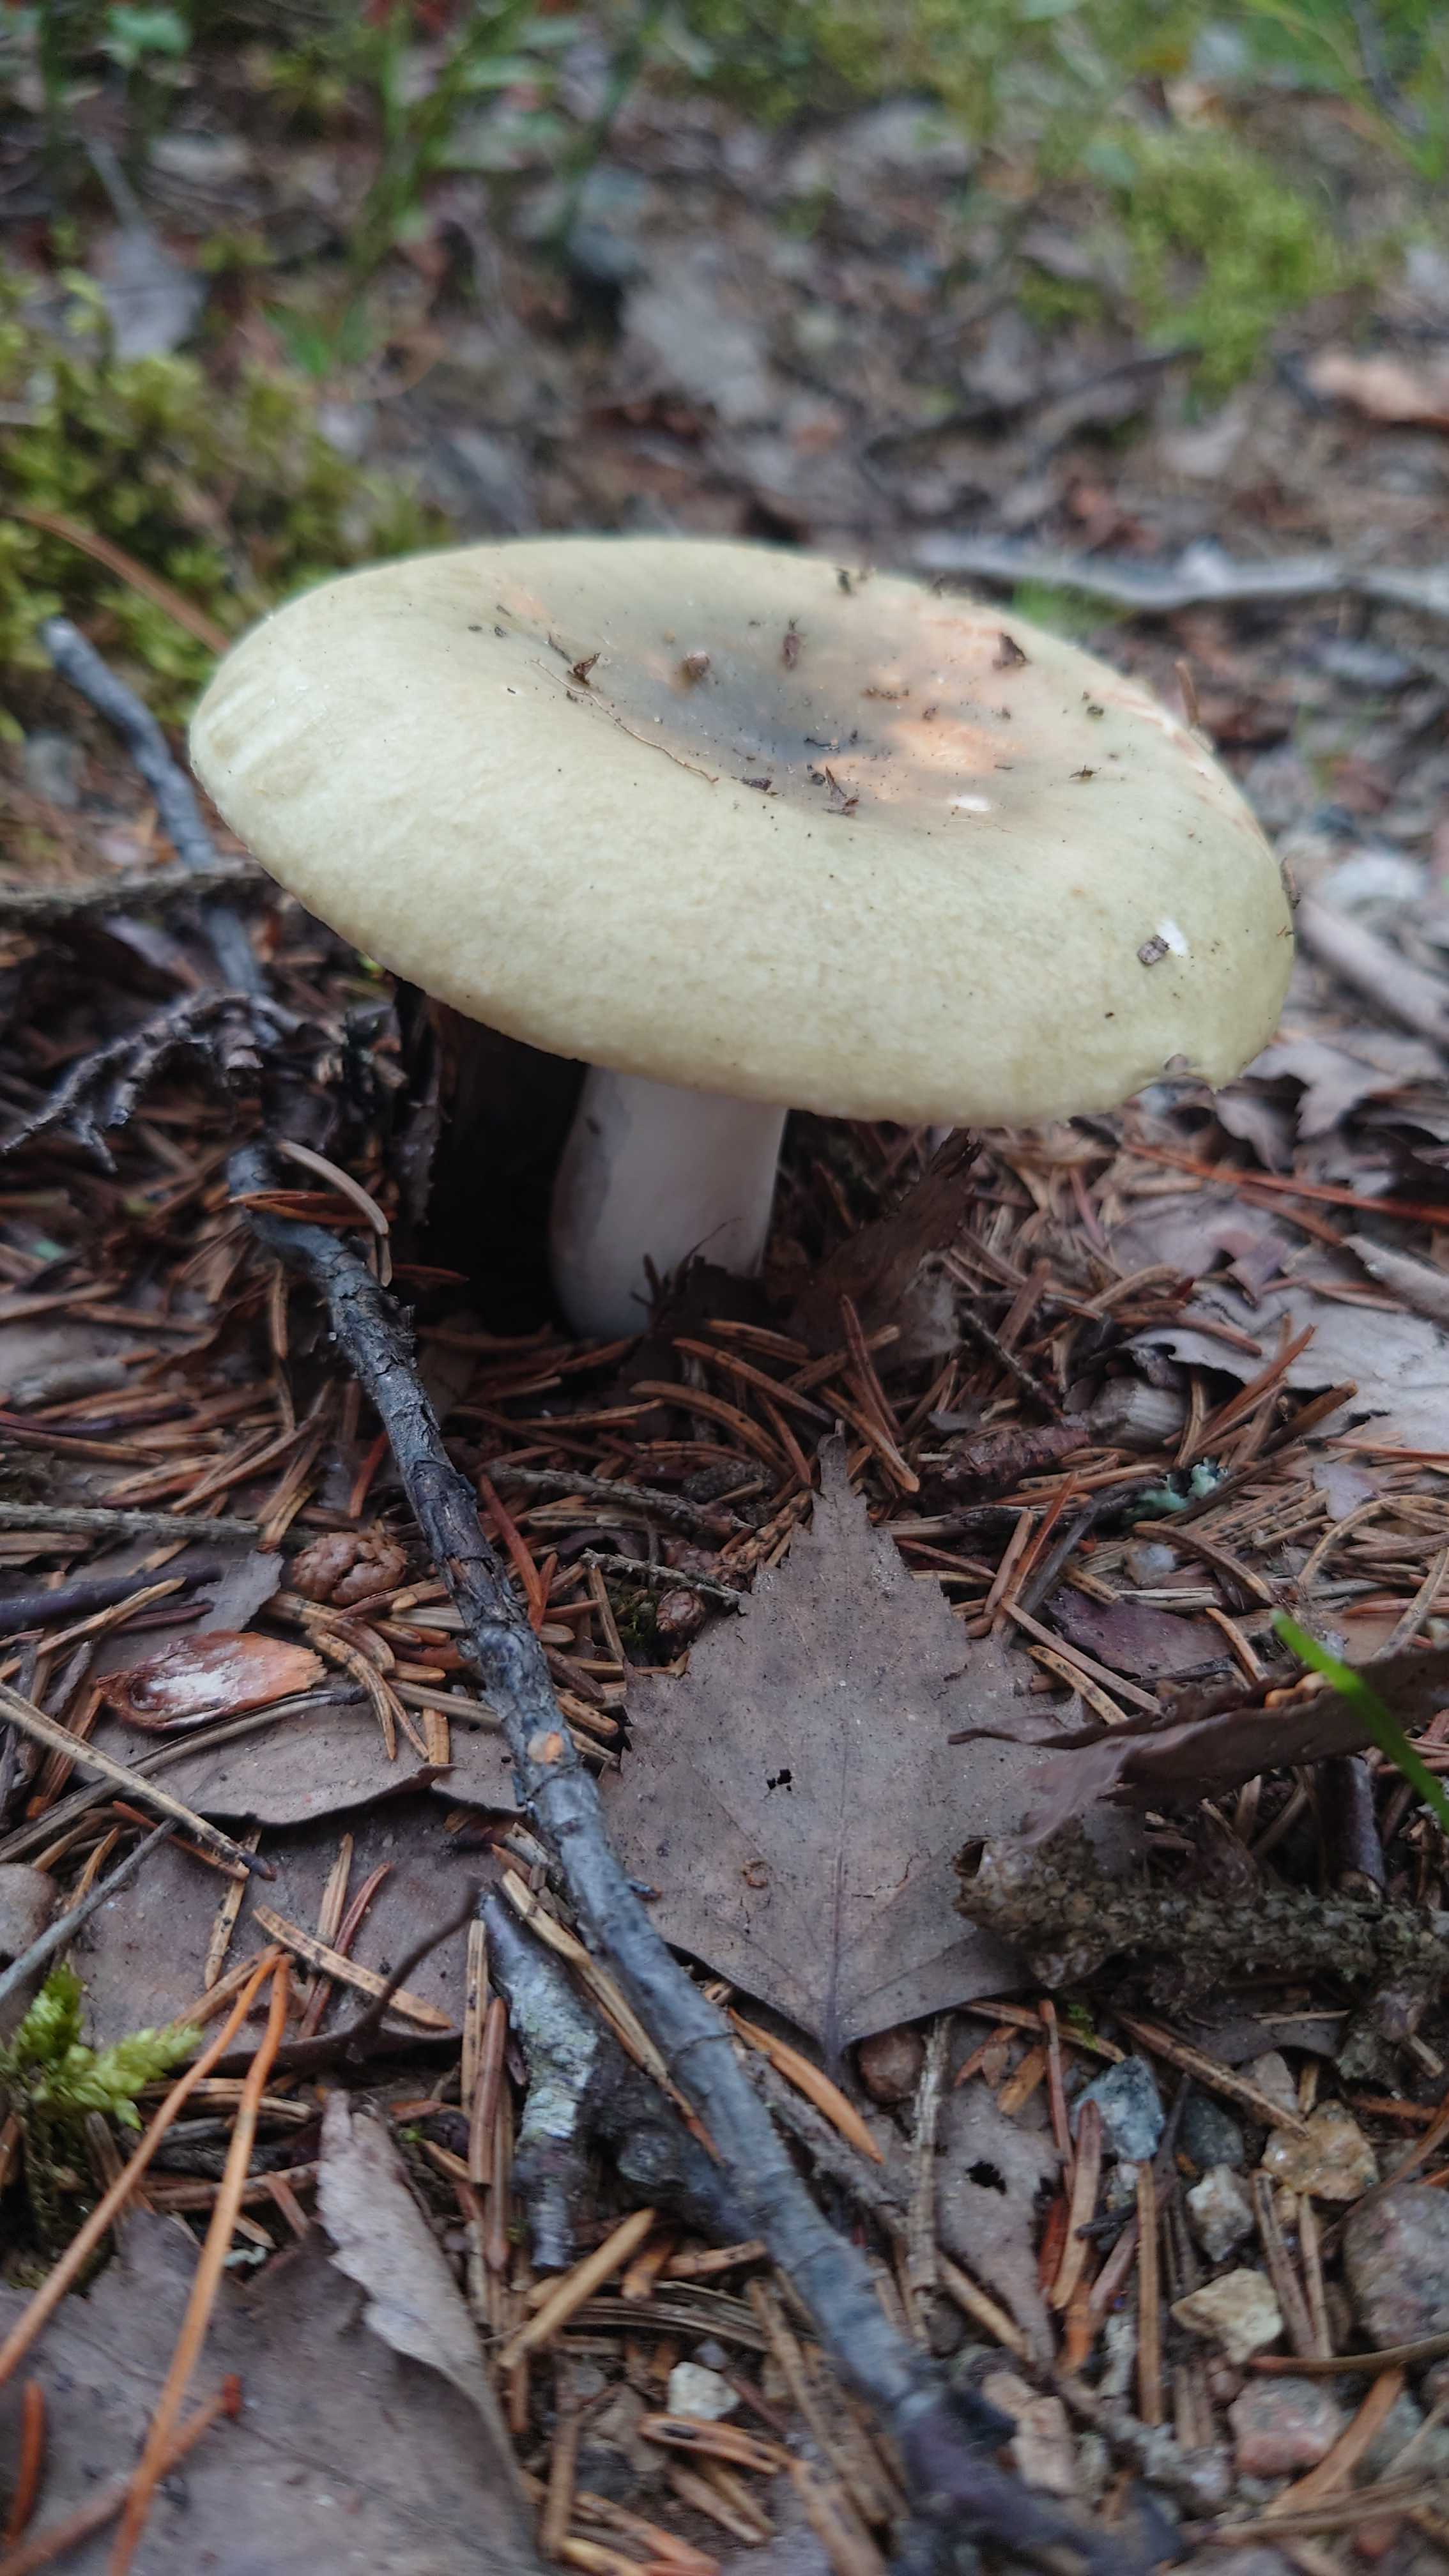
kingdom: Fungi
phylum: Basidiomycota
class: Agaricomycetes
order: Russulales
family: Russulaceae
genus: Russula
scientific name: Russula aeruginea
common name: græsgrøn skørhat
